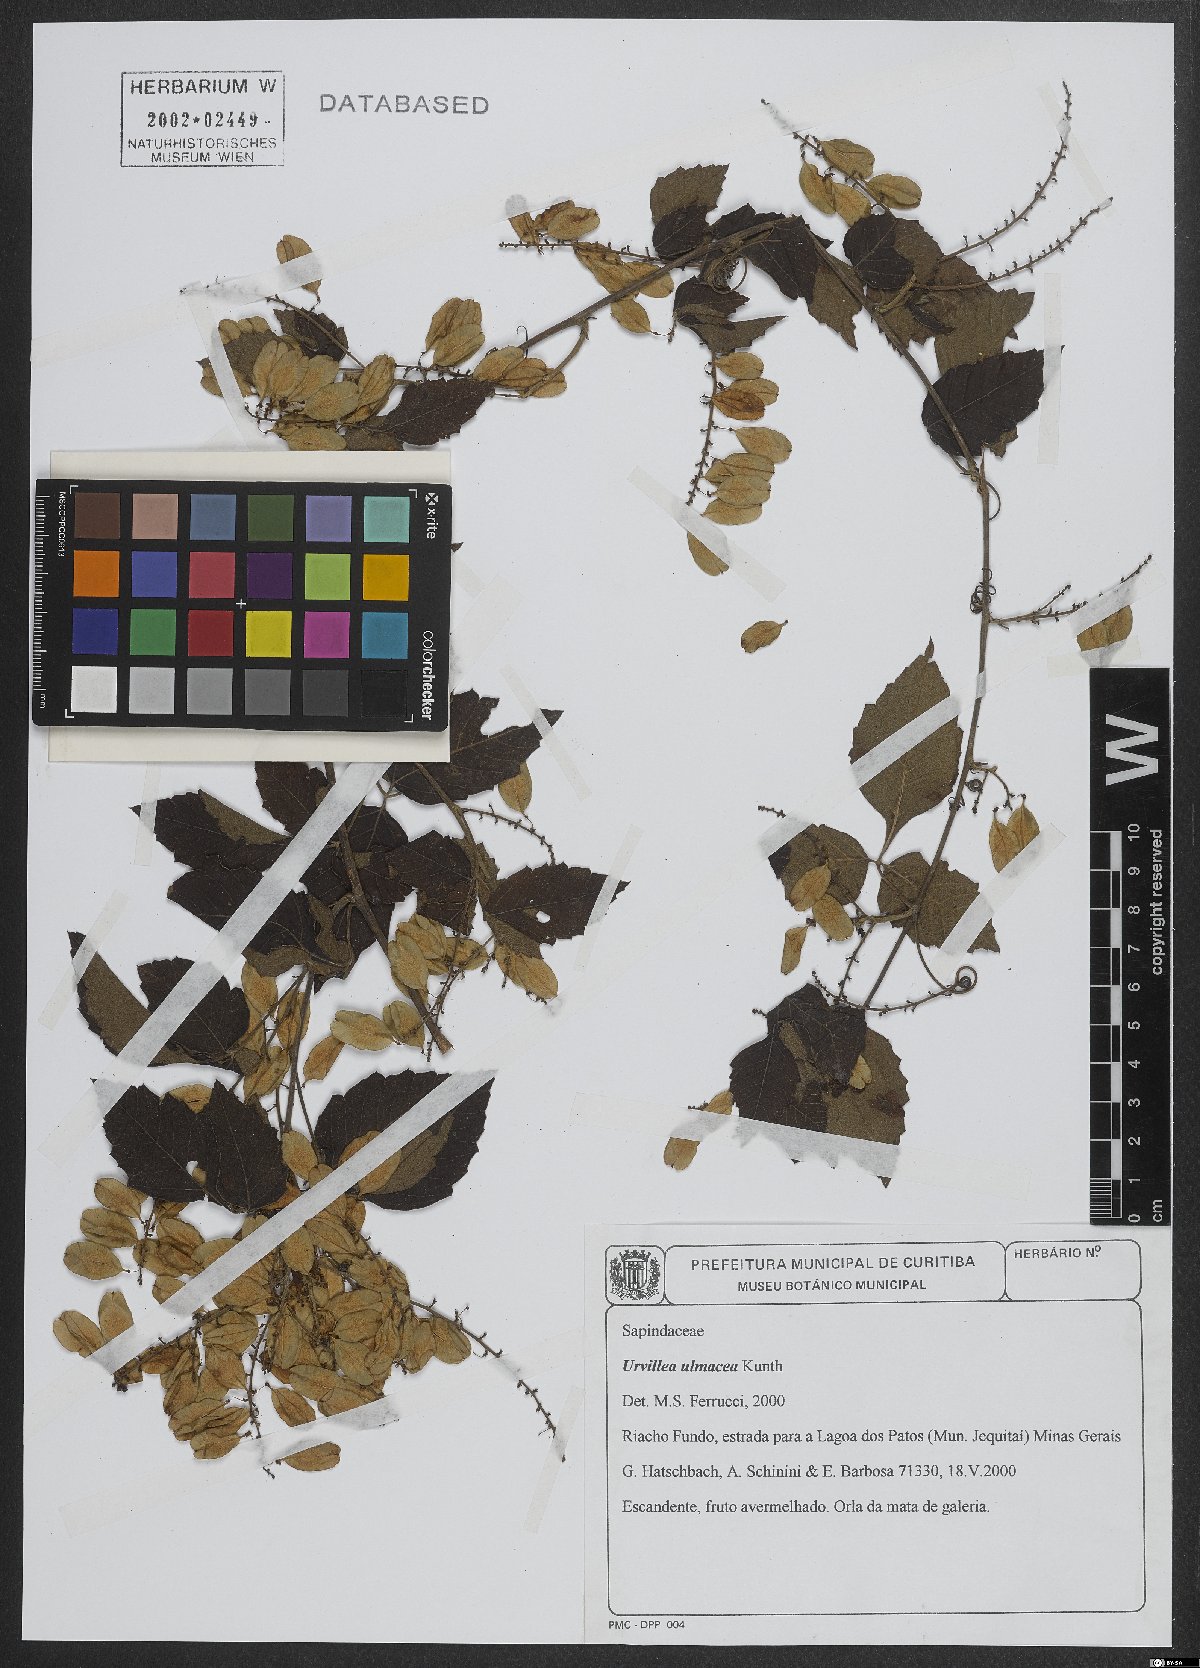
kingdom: Plantae
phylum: Tracheophyta
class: Magnoliopsida
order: Sapindales
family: Sapindaceae
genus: Urvillea
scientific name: Urvillea ulmacea
